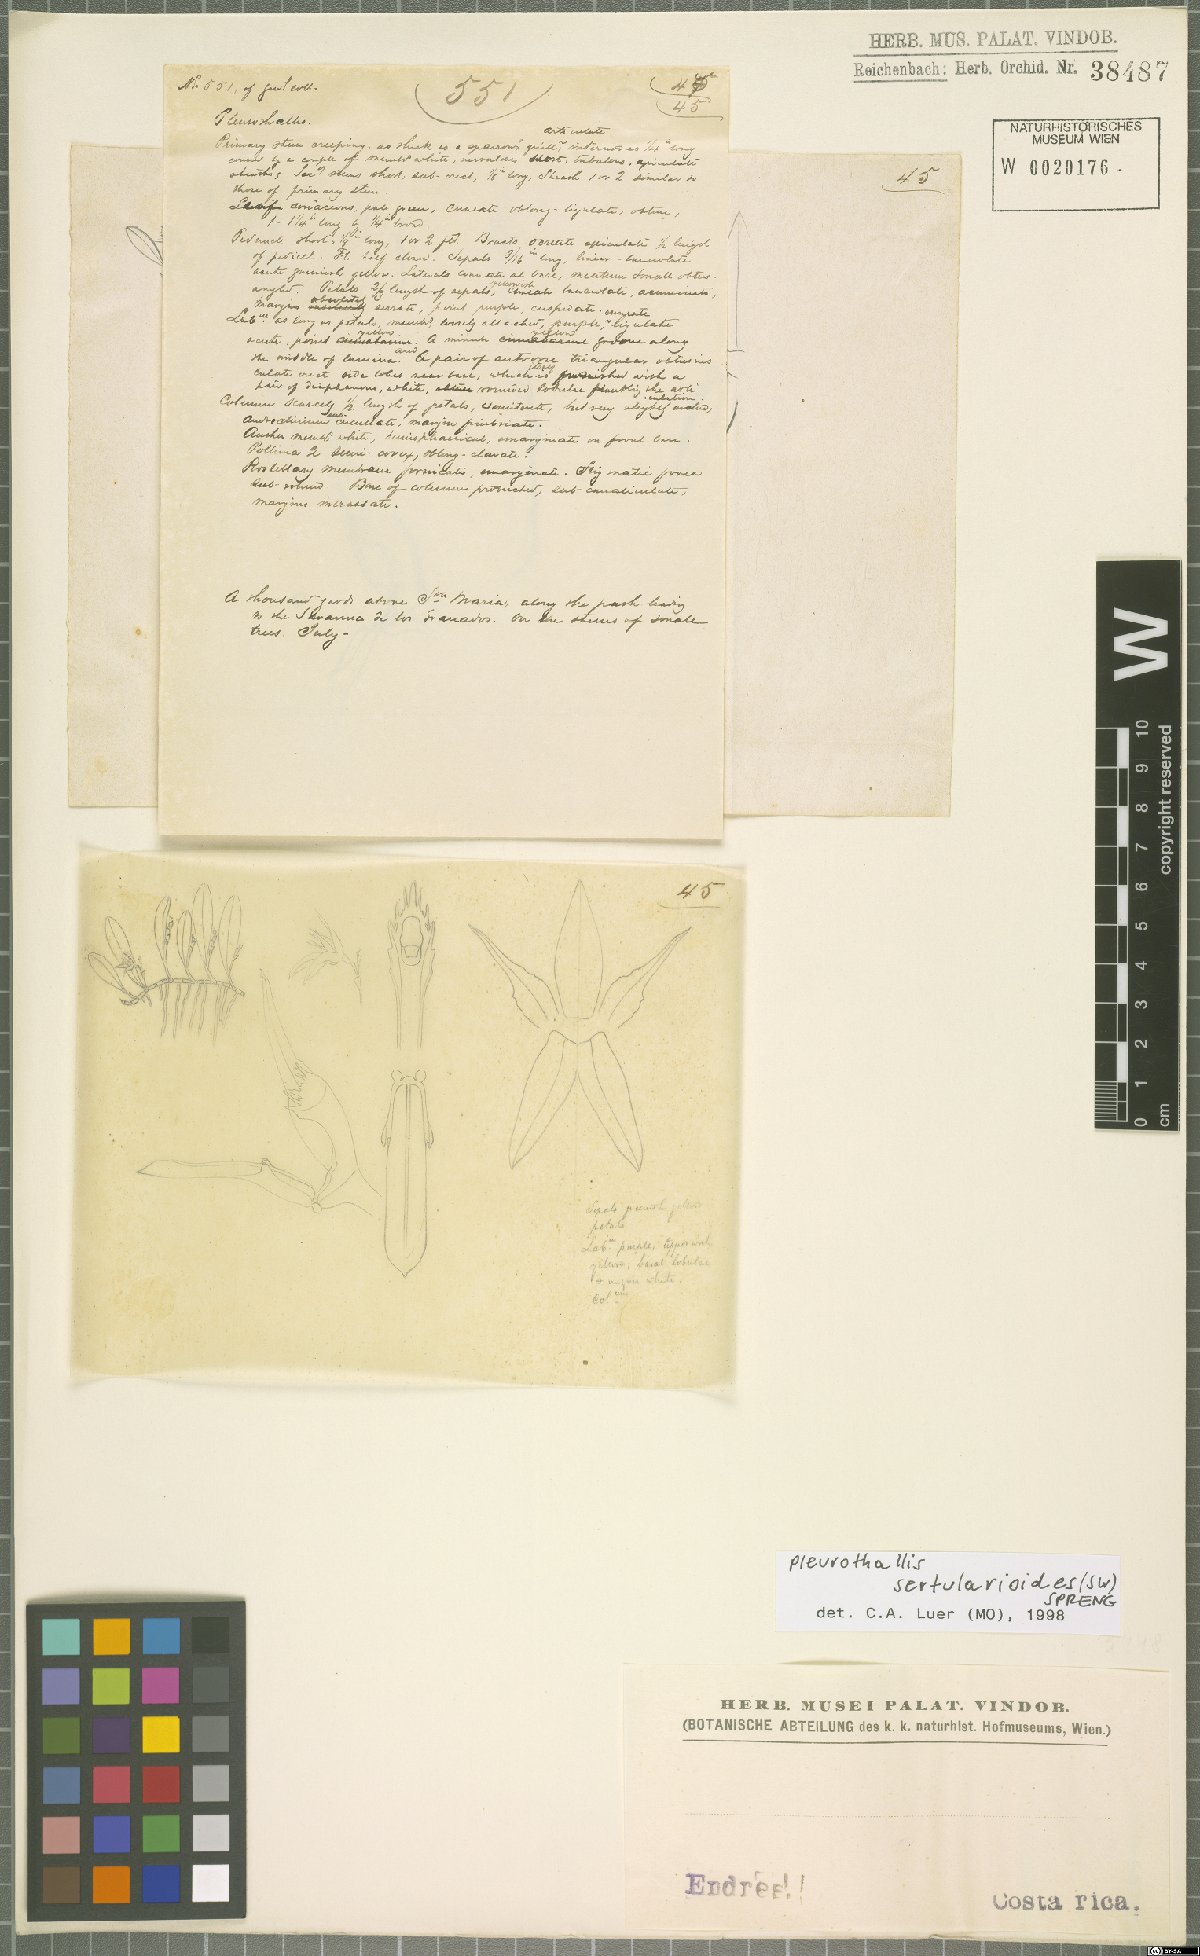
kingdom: Plantae
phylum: Tracheophyta
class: Liliopsida
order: Asparagales
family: Orchidaceae
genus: Anathallis
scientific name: Anathallis sertularioides
